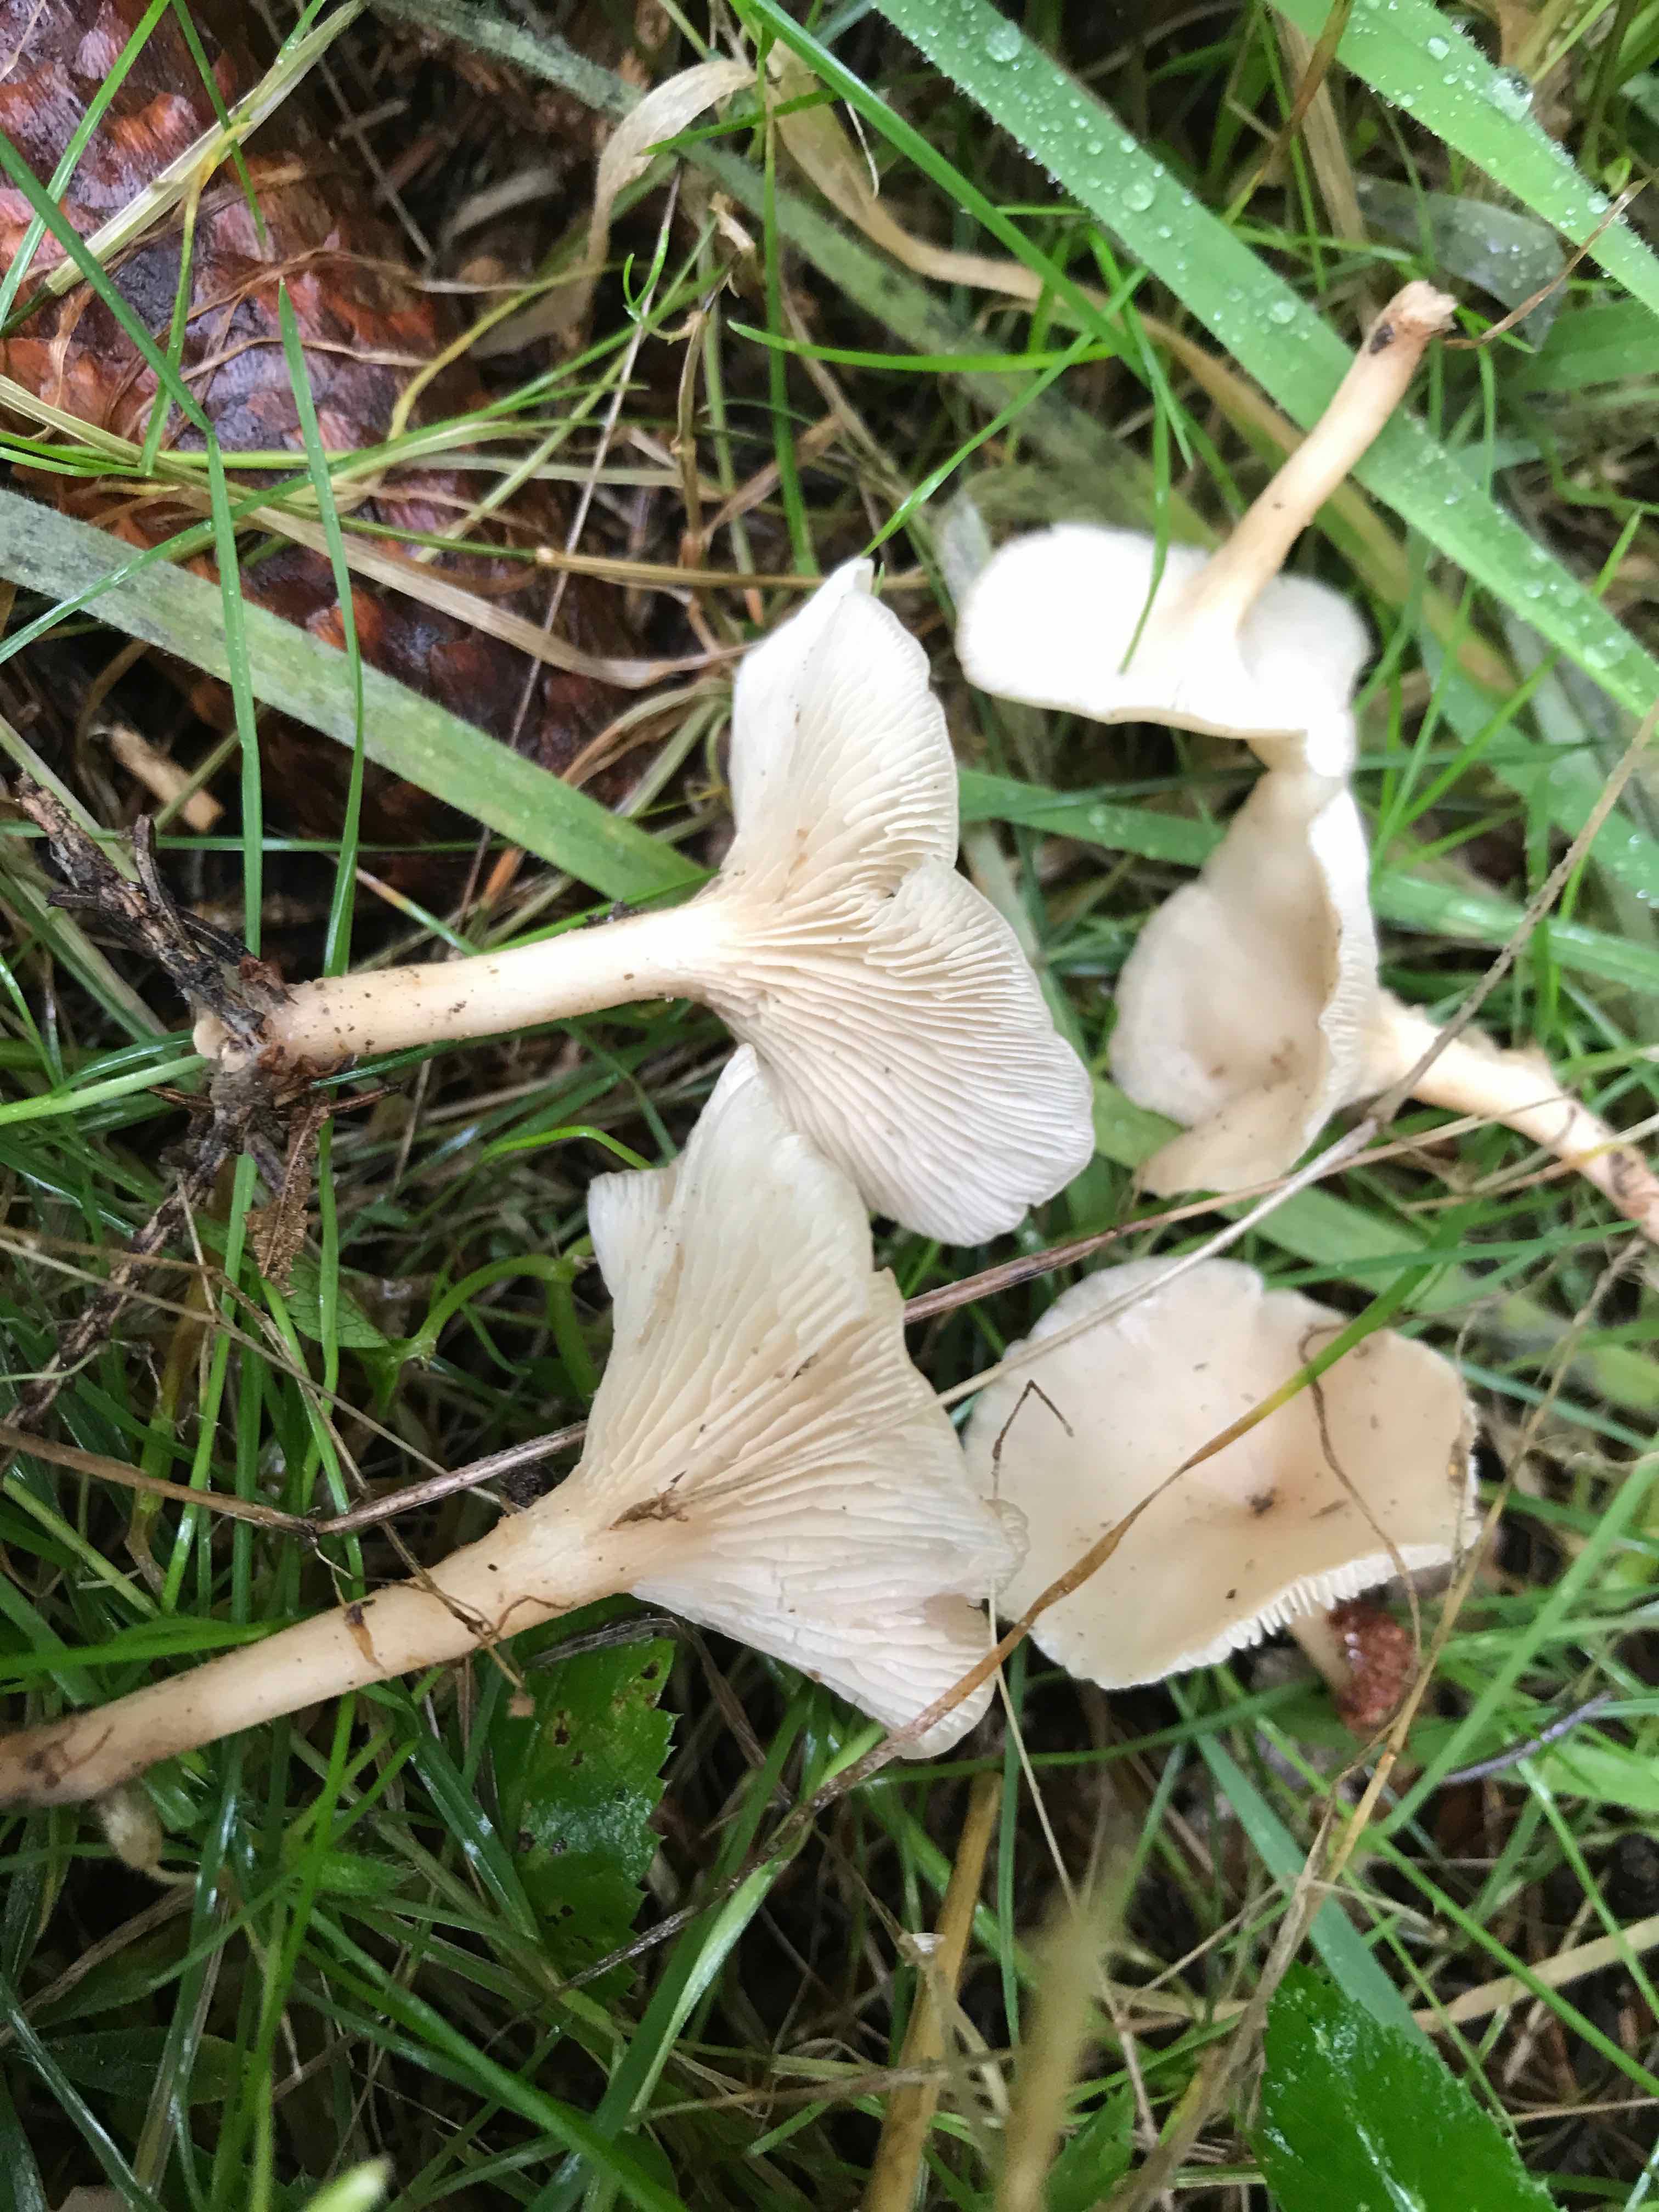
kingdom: Fungi
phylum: Basidiomycota
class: Agaricomycetes
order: Agaricales
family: Tricholomataceae
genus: Clitocybe
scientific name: Clitocybe
